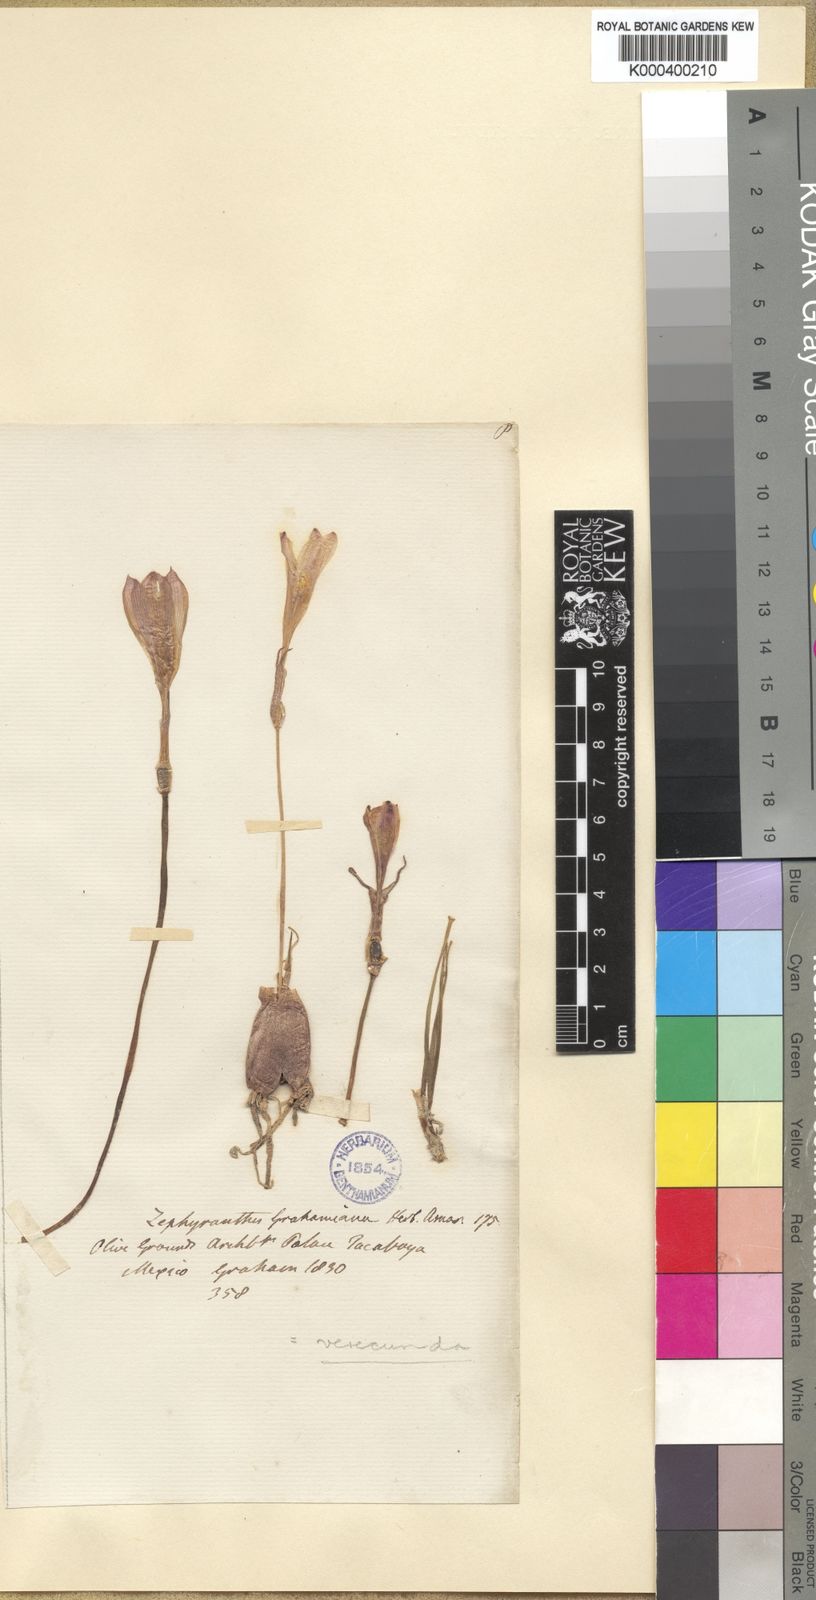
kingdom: Plantae
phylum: Tracheophyta
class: Liliopsida
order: Asparagales
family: Amaryllidaceae
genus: Zephyranthes
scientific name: Zephyranthes minuta
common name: Pink rain lily
